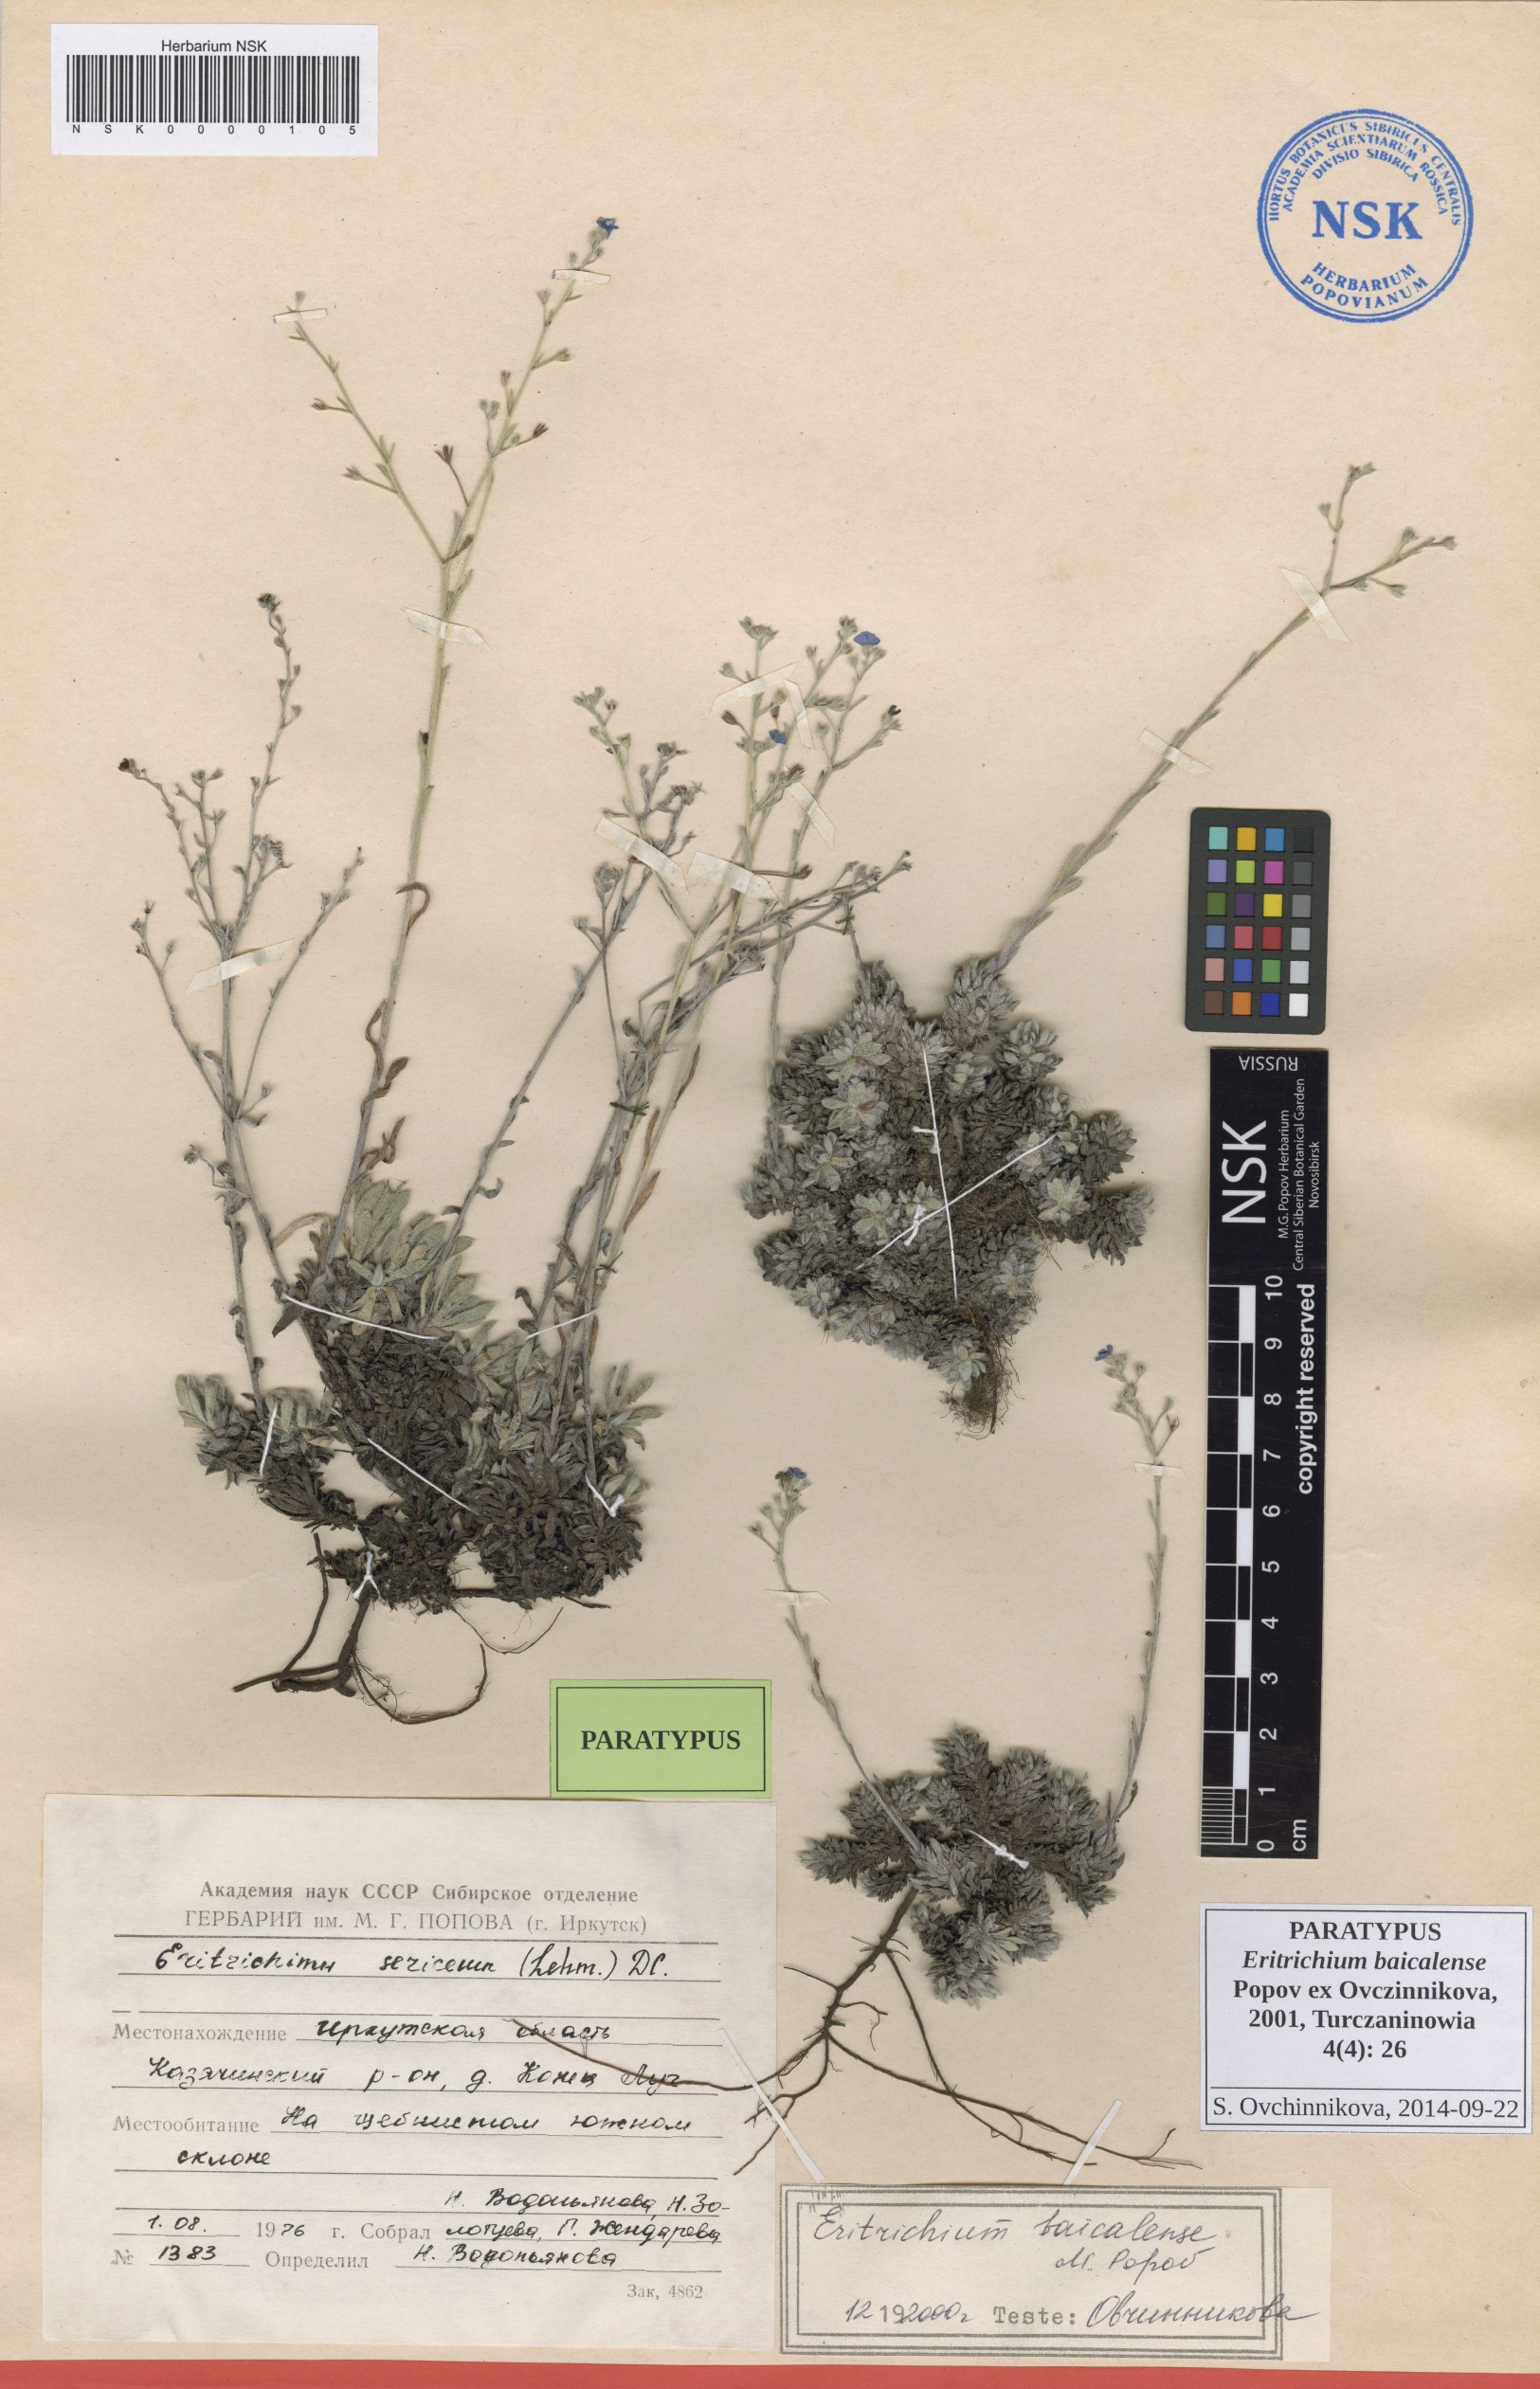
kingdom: Plantae
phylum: Tracheophyta
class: Magnoliopsida
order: Boraginales
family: Boraginaceae
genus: Eritrichium
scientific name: Eritrichium baicalense
